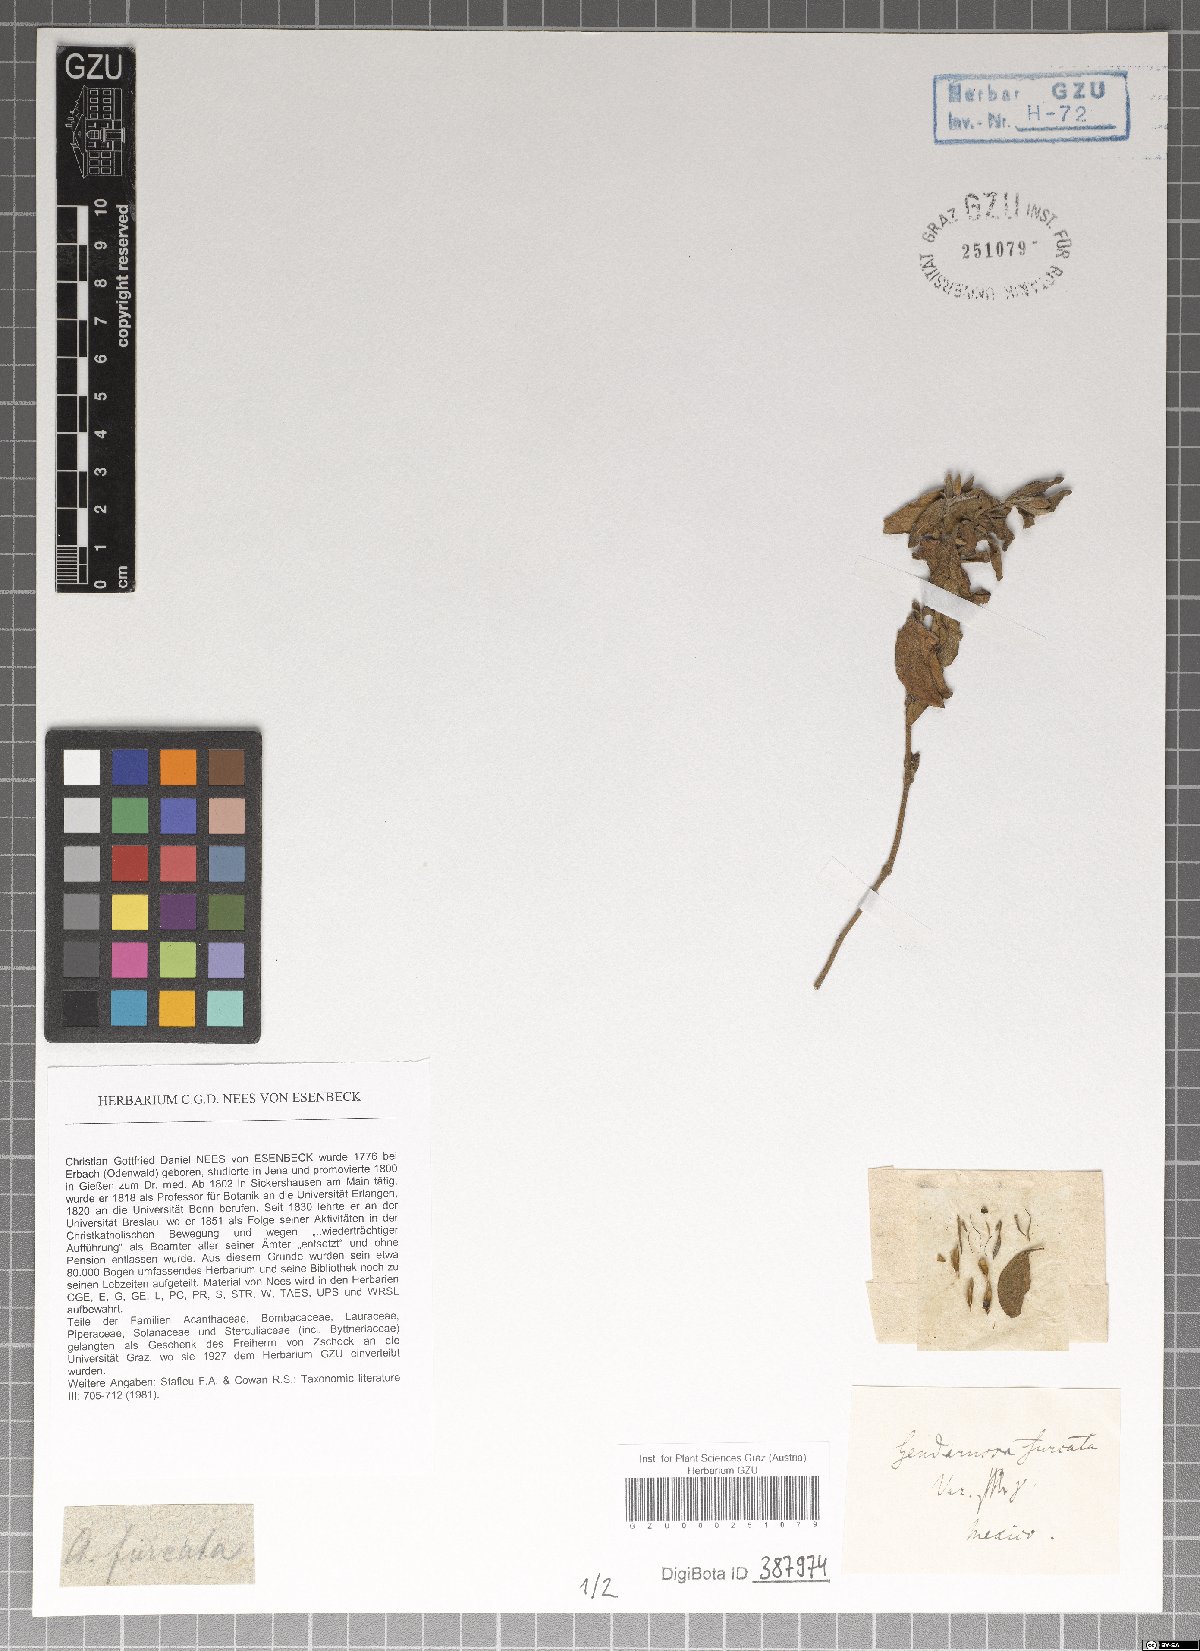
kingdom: Plantae
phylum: Tracheophyta
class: Magnoliopsida
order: Lamiales
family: Acanthaceae
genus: Justicia
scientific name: Justicia furcata
